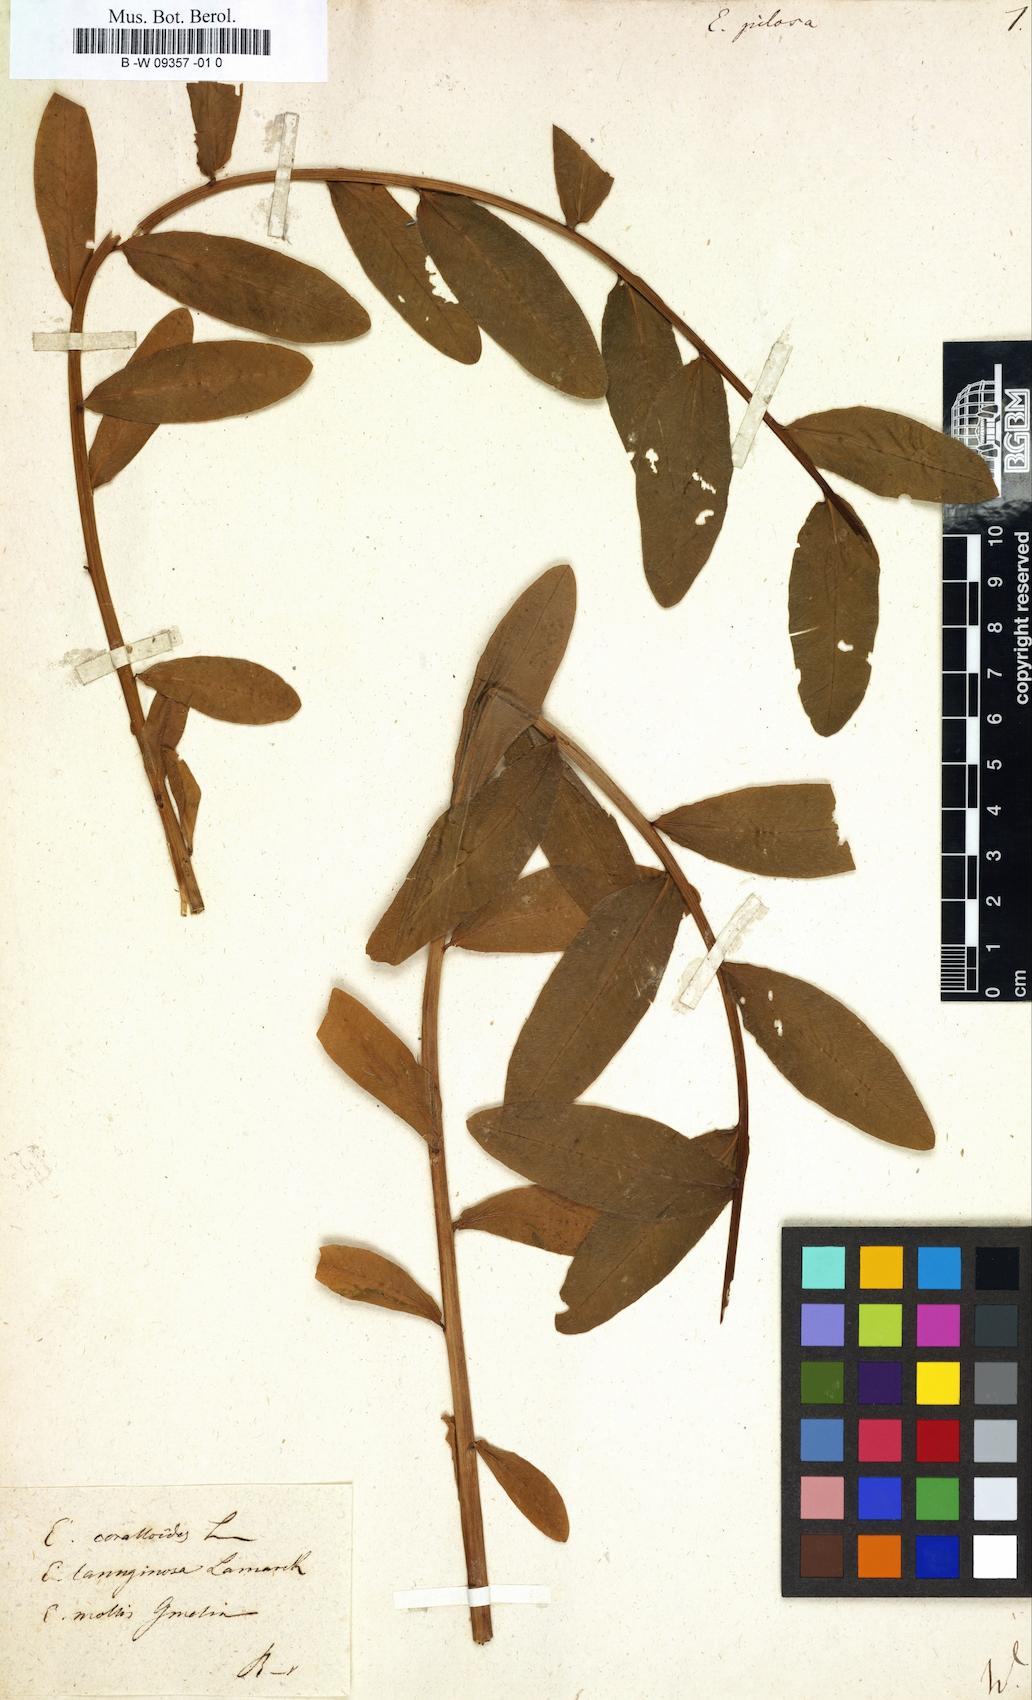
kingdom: Plantae
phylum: Tracheophyta
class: Magnoliopsida
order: Malpighiales
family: Euphorbiaceae
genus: Euphorbia
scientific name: Euphorbia pilosa
